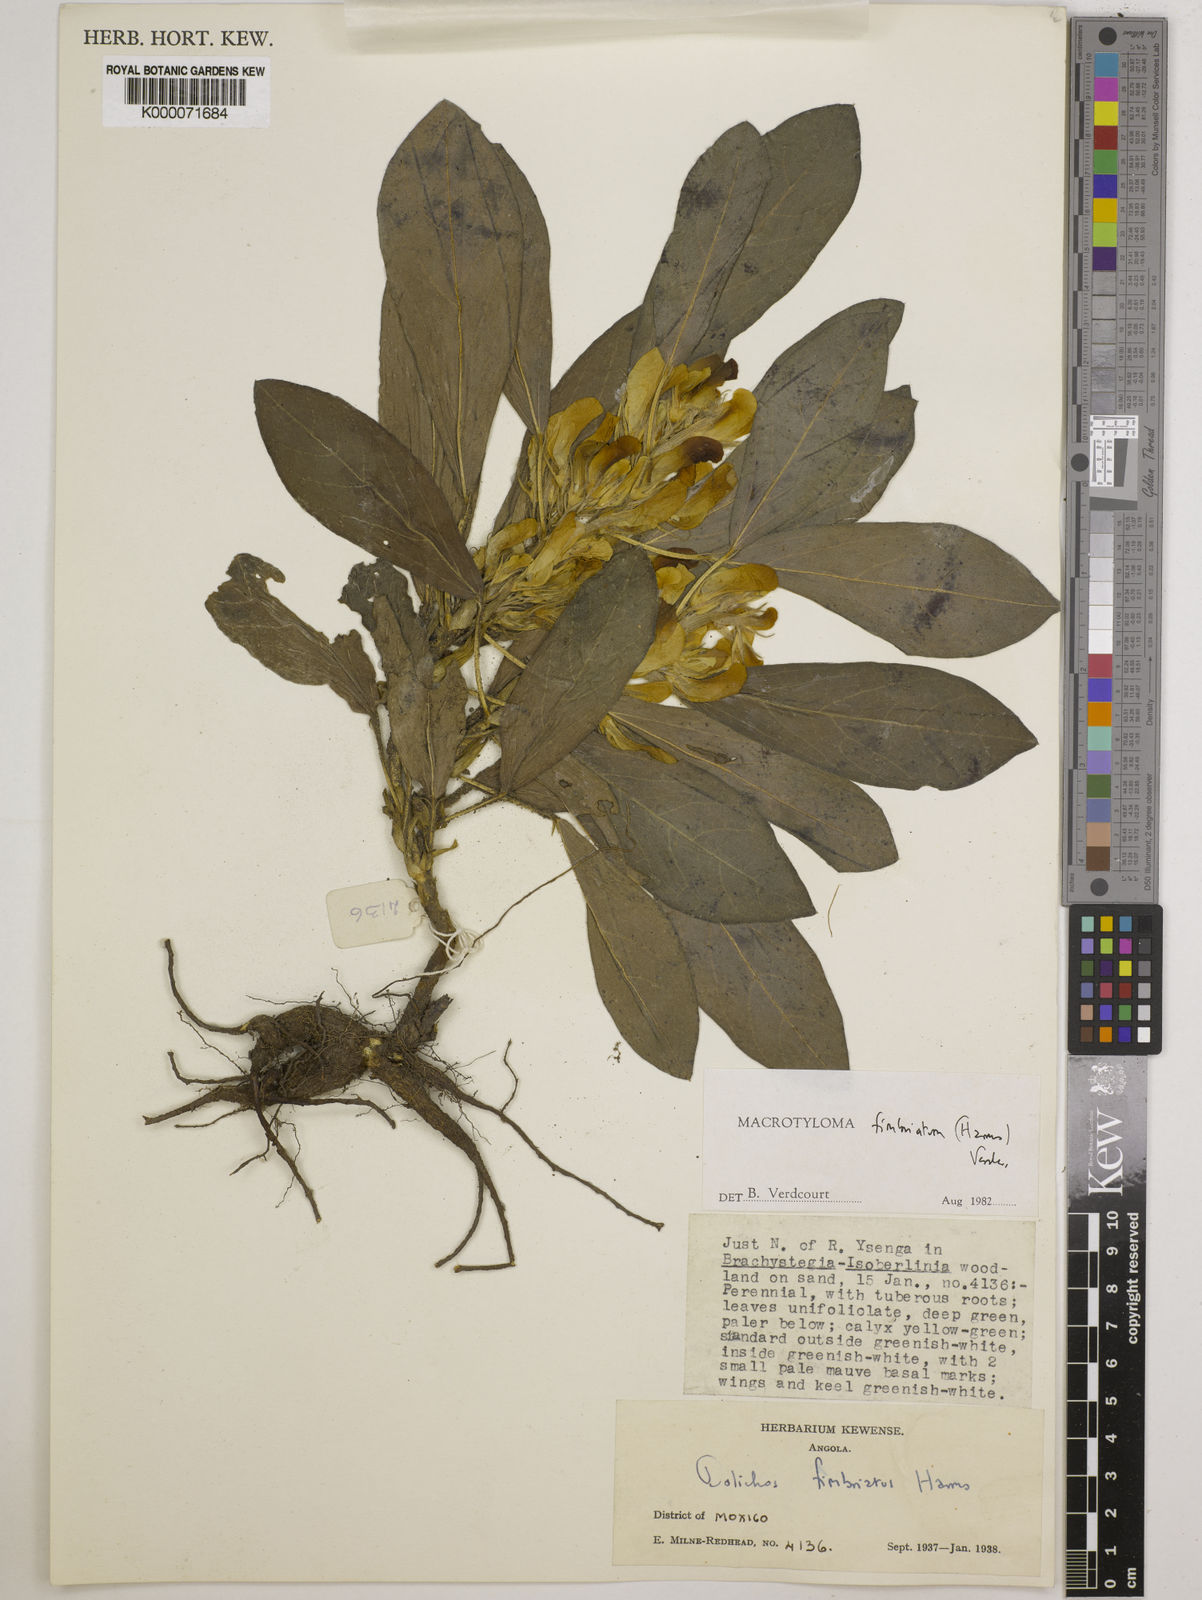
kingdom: Plantae
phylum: Tracheophyta
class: Magnoliopsida
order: Fabales
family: Fabaceae
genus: Macrotyloma
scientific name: Macrotyloma fimbriatum
